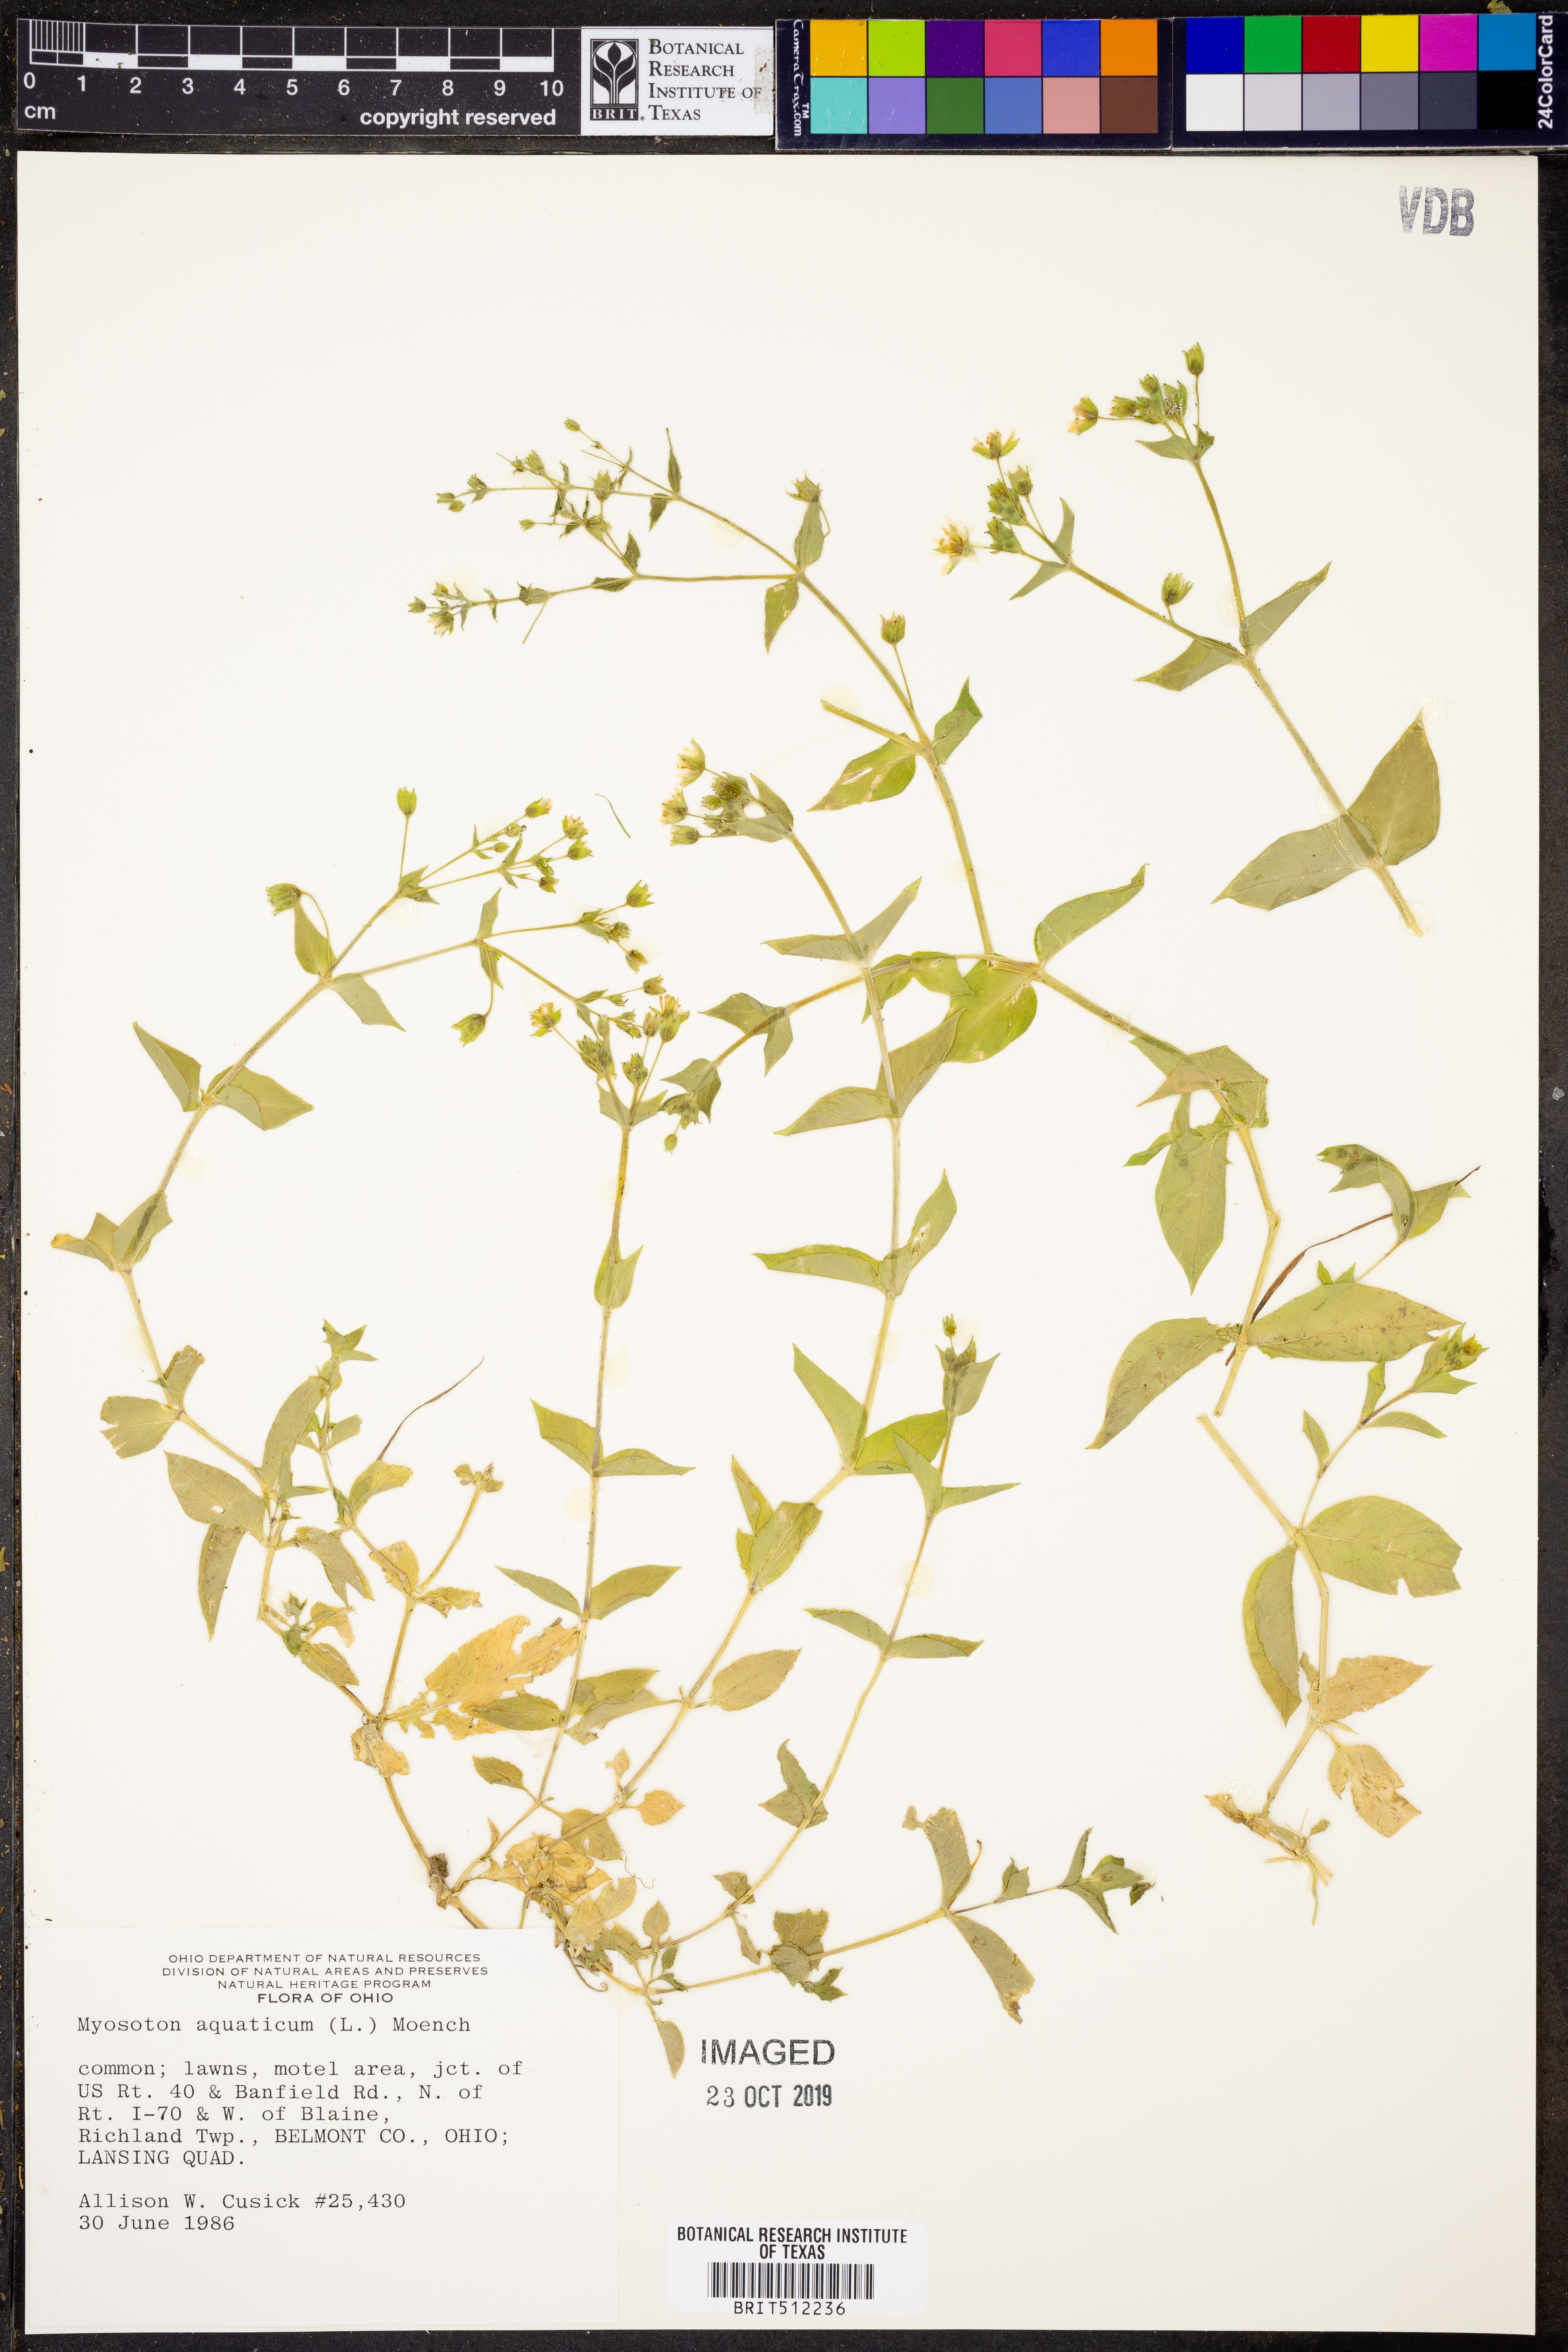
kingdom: Plantae
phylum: Tracheophyta
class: Magnoliopsida
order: Caryophyllales
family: Caryophyllaceae
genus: Stellaria
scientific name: Stellaria aquatica
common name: Water chickweed
